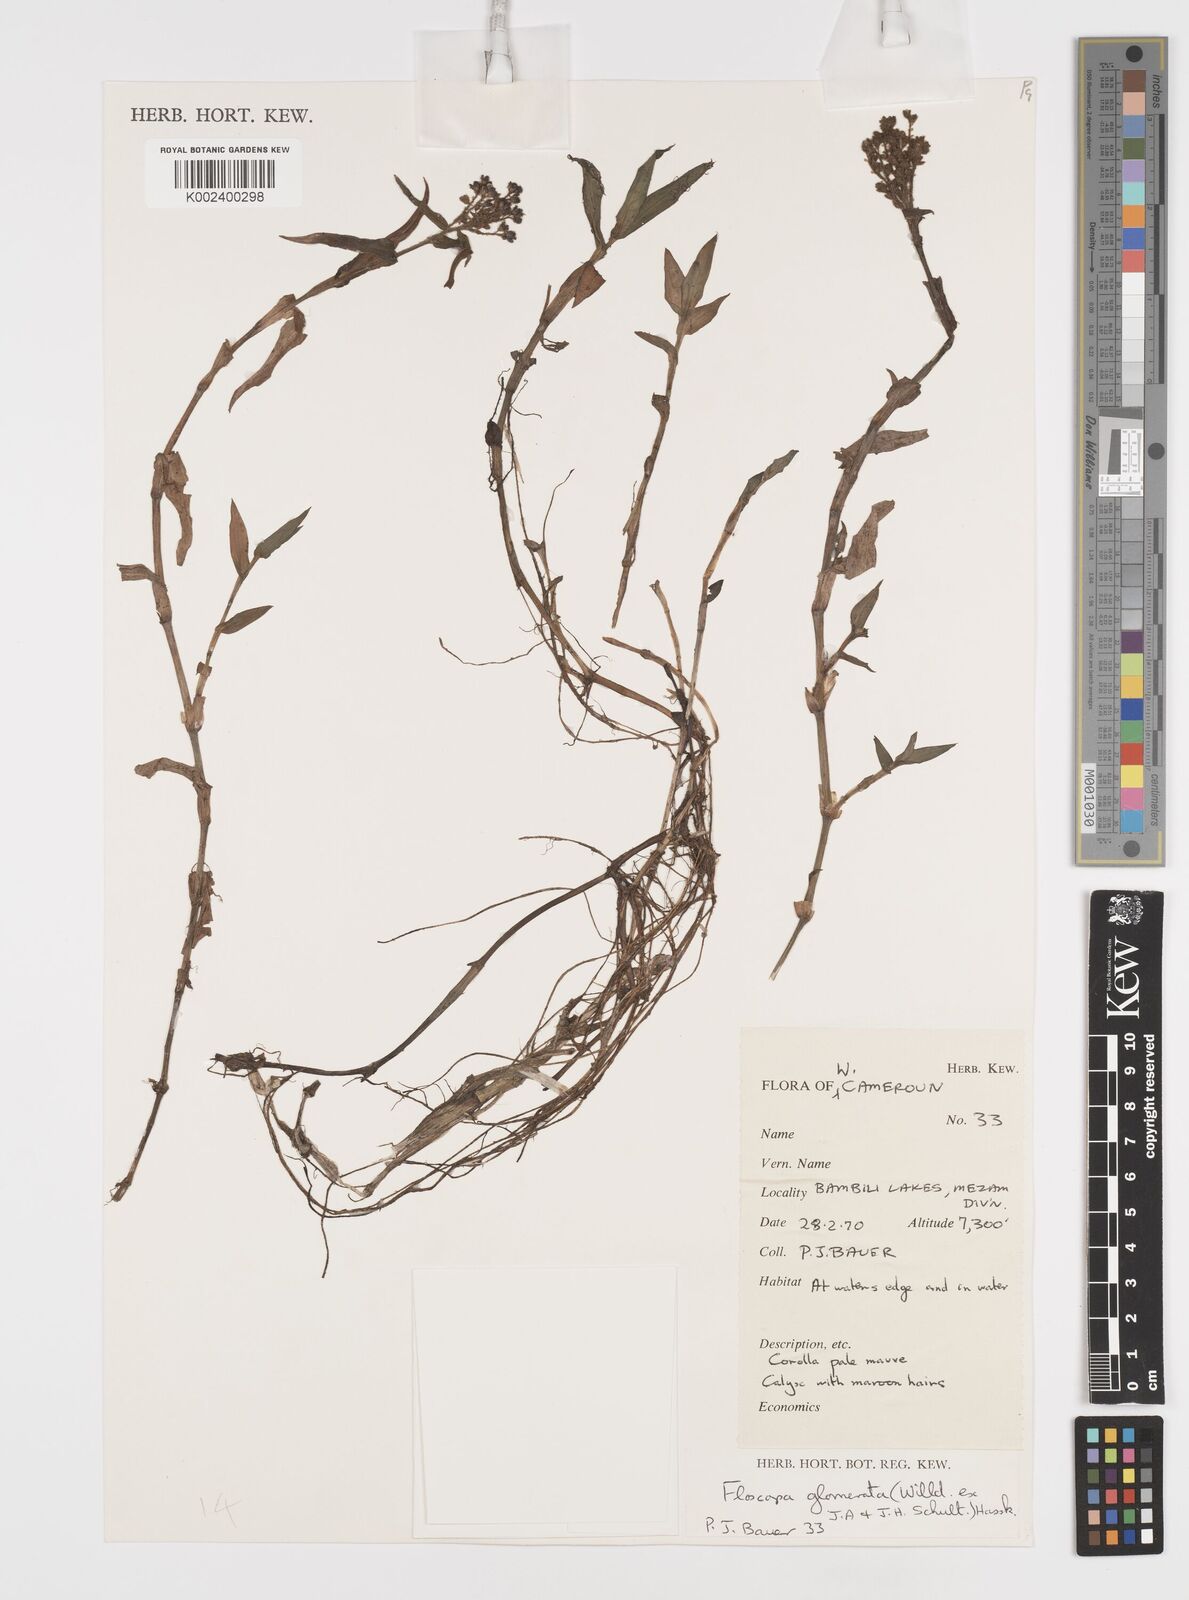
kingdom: Plantae
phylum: Tracheophyta
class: Liliopsida
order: Commelinales
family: Commelinaceae
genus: Floscopa
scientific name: Floscopa glomerata
